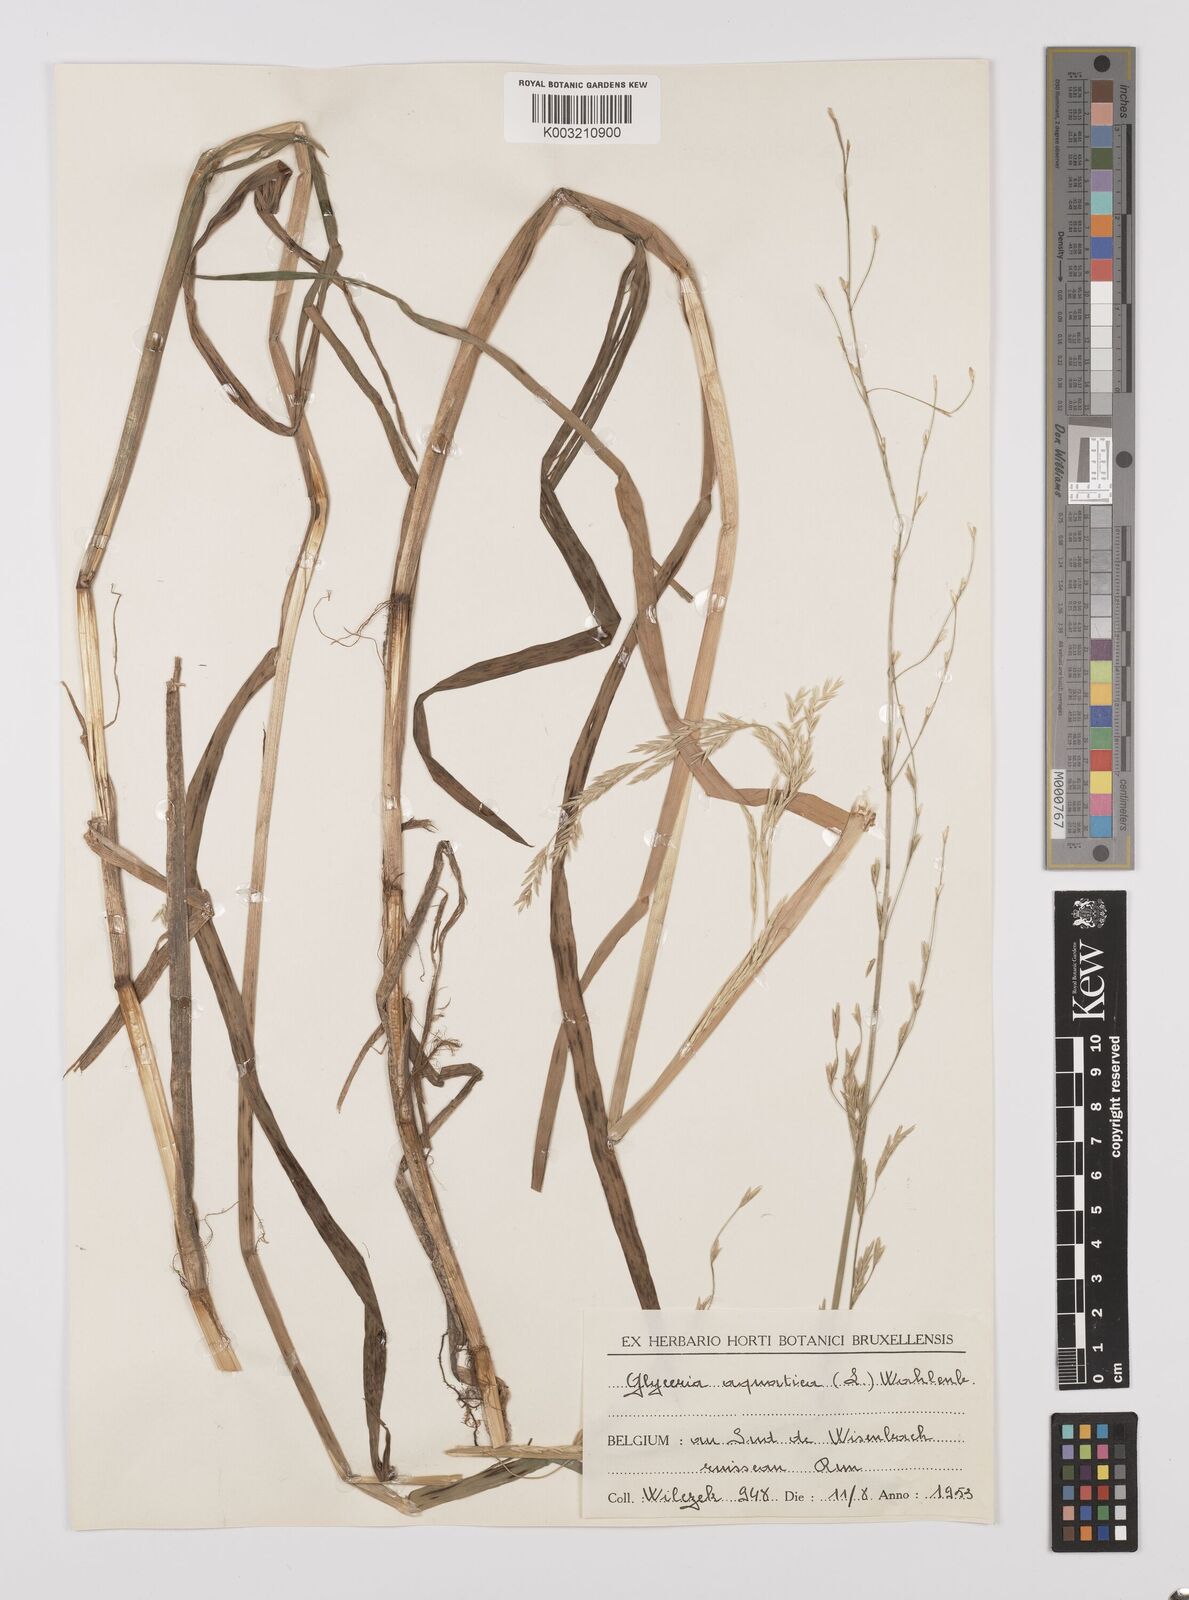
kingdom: Plantae
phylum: Tracheophyta
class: Liliopsida
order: Poales
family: Poaceae
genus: Glyceria
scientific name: Glyceria fluitans
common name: Floating sweet-grass
